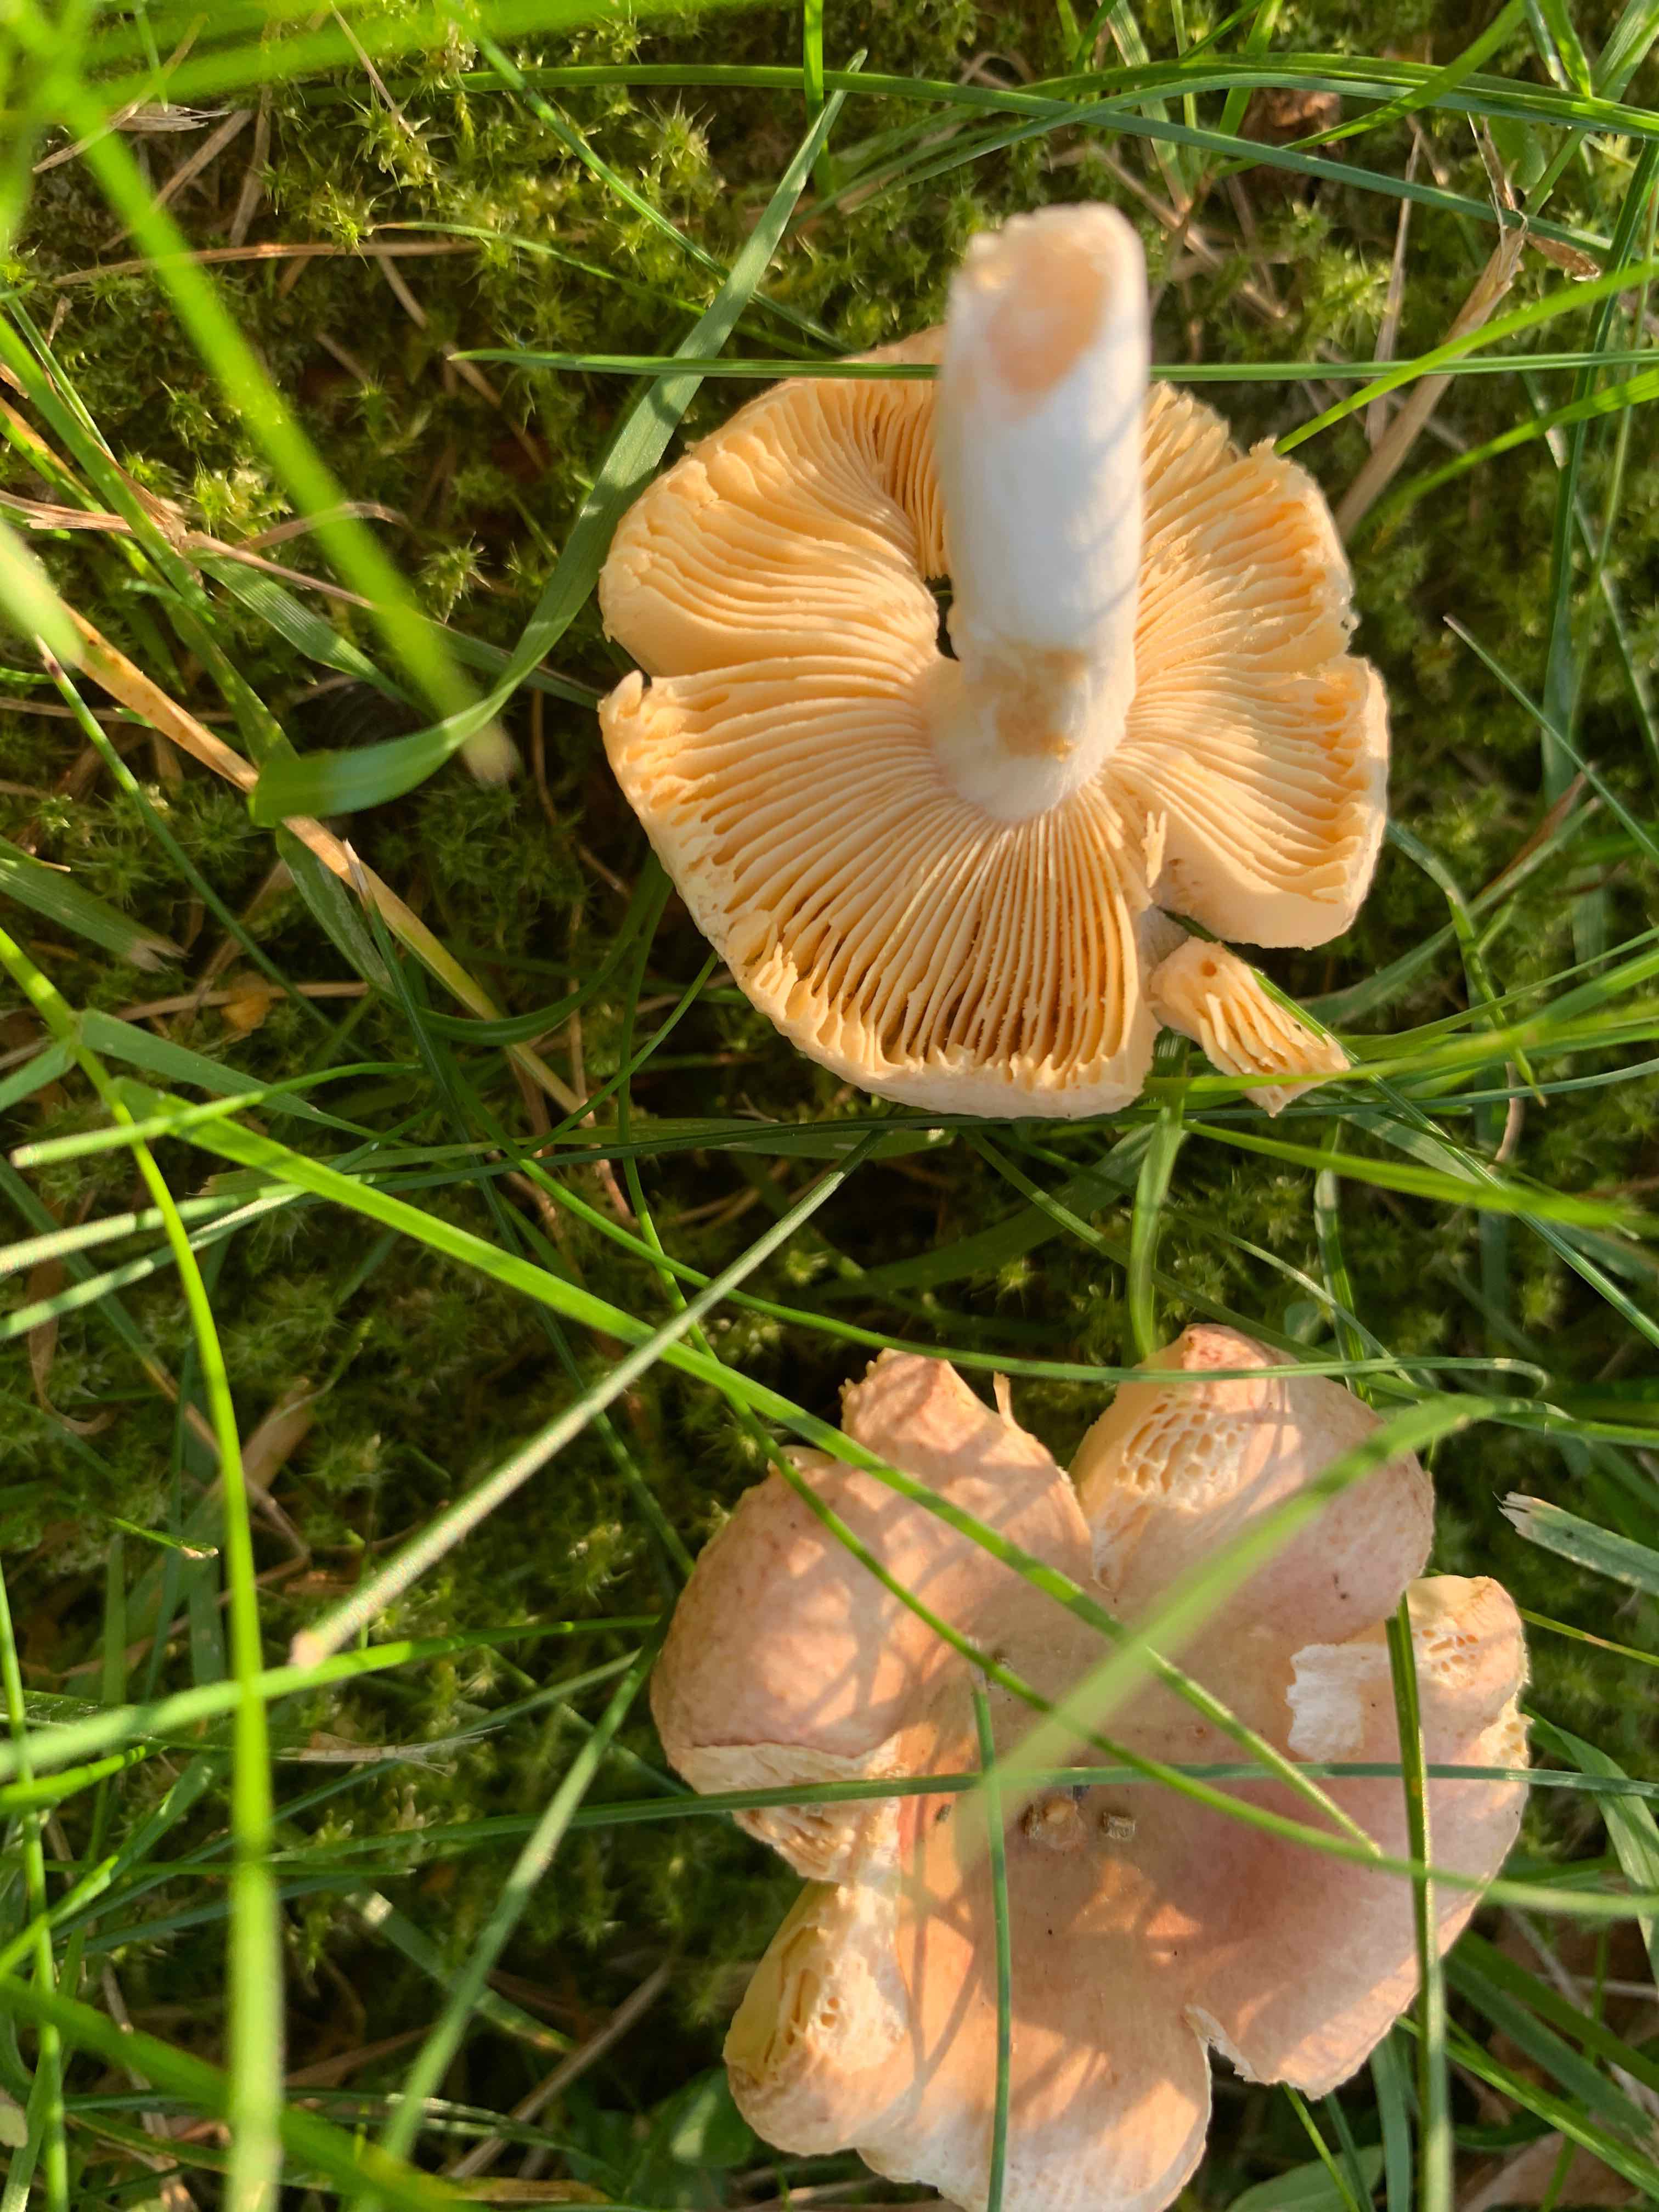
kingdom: Fungi
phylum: Basidiomycota
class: Agaricomycetes
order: Russulales
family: Russulaceae
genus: Russula
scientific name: Russula odorata
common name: duft-skørhat
